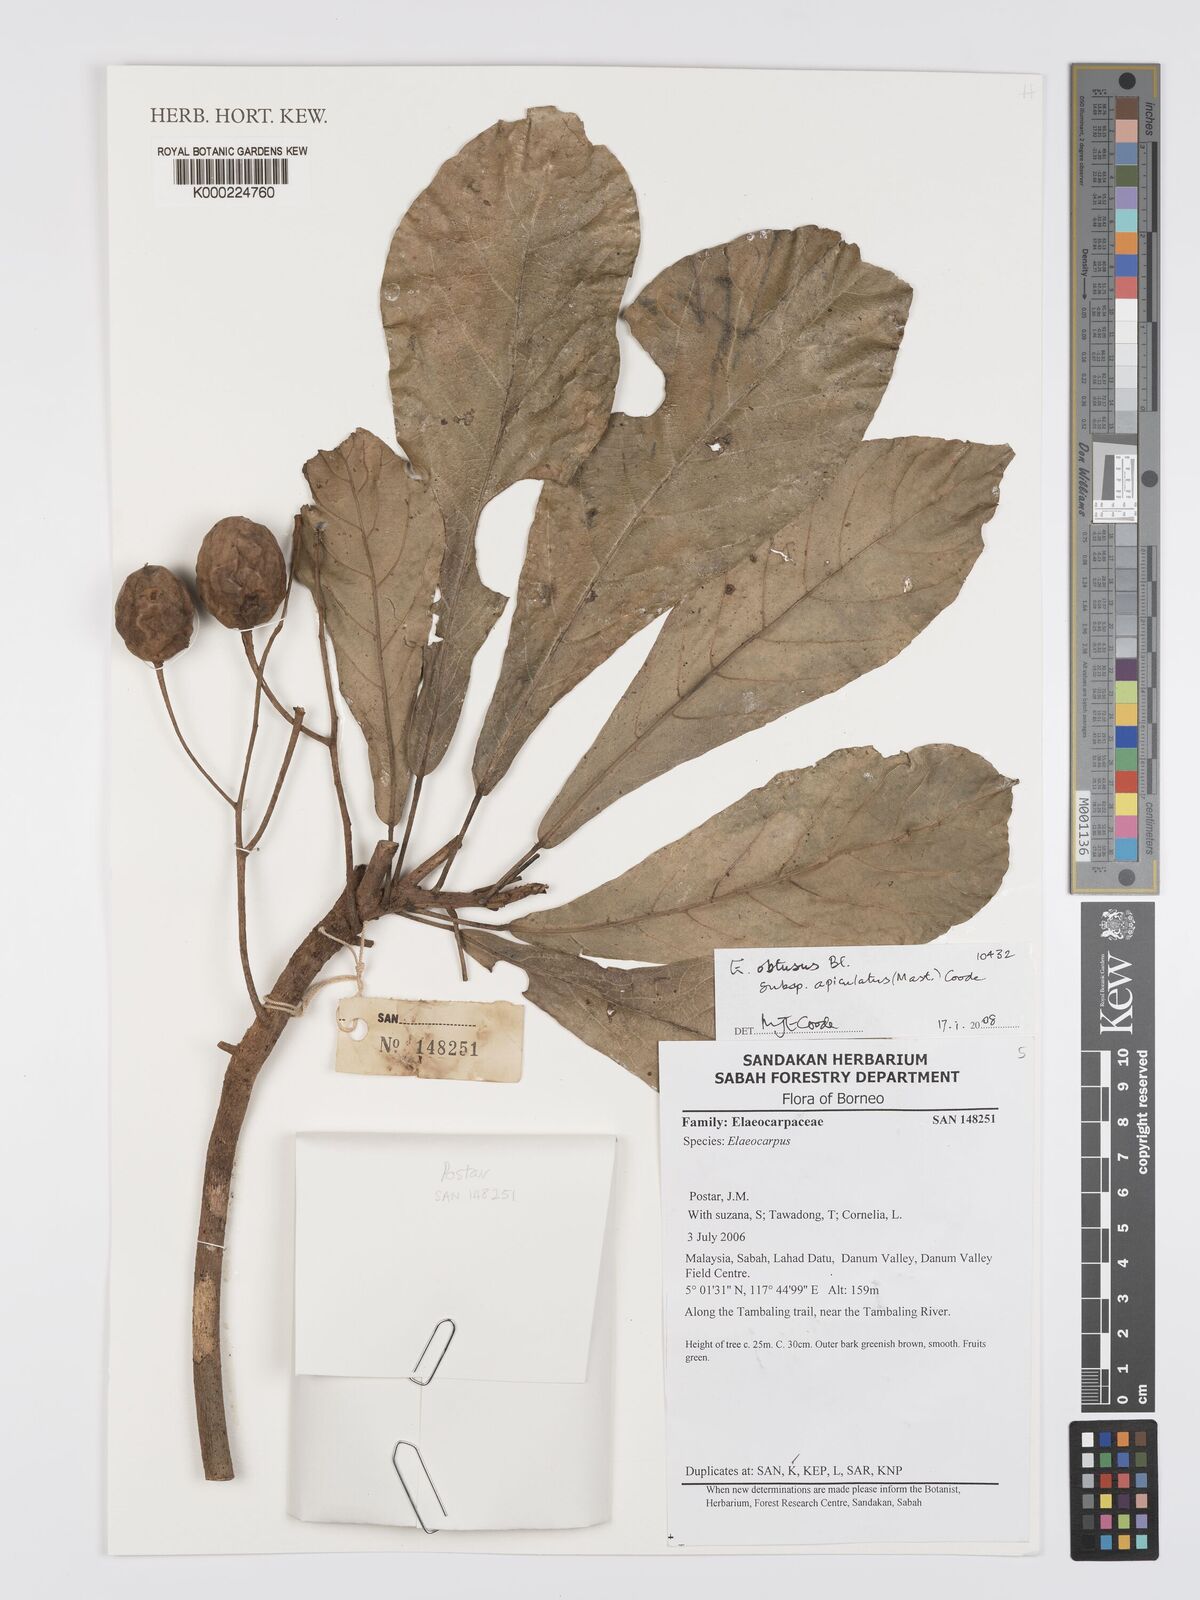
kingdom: Plantae
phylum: Tracheophyta
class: Magnoliopsida
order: Oxalidales
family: Elaeocarpaceae
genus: Elaeocarpus
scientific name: Elaeocarpus obtusus
